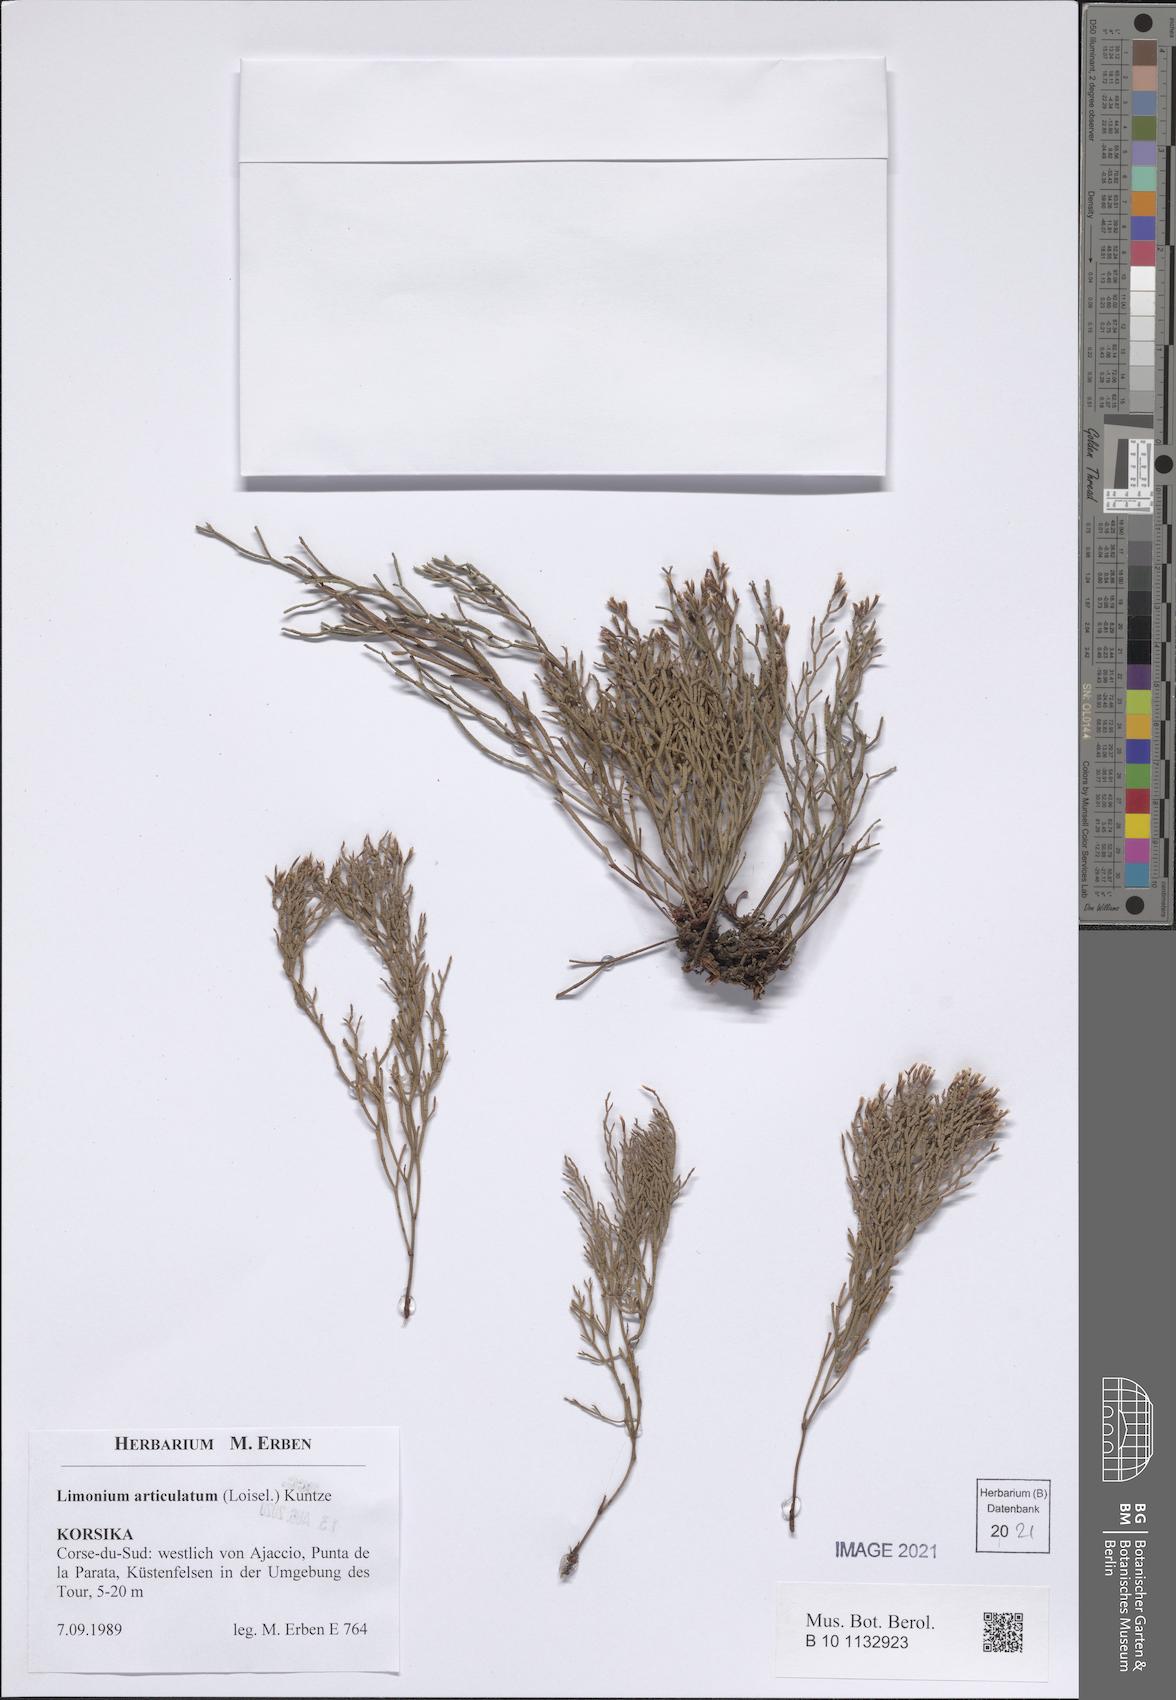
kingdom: Plantae
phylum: Tracheophyta
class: Magnoliopsida
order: Caryophyllales
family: Plumbaginaceae
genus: Limonium
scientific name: Limonium articulatum
